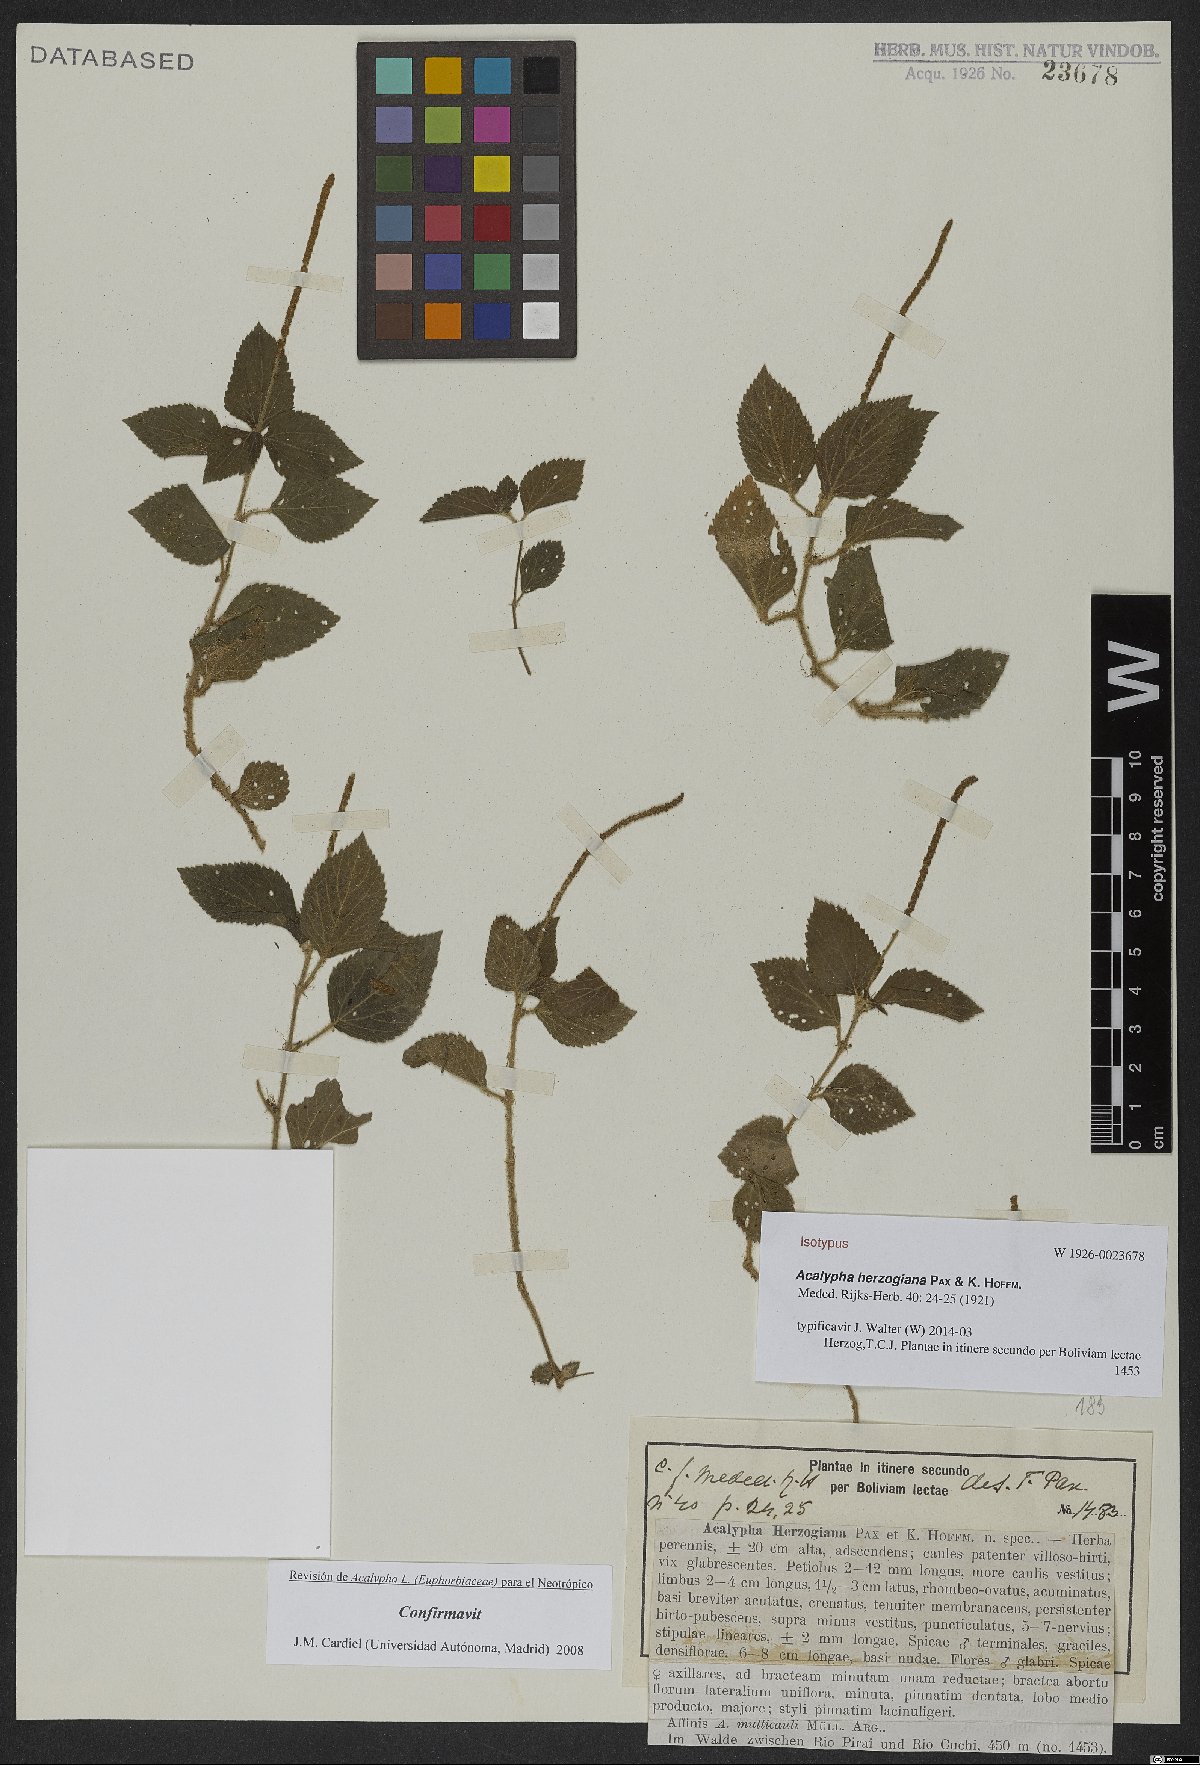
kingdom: Plantae
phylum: Tracheophyta
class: Magnoliopsida
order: Malpighiales
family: Euphorbiaceae
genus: Acalypha
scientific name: Acalypha herzogiana
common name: Dwarf-cattail
